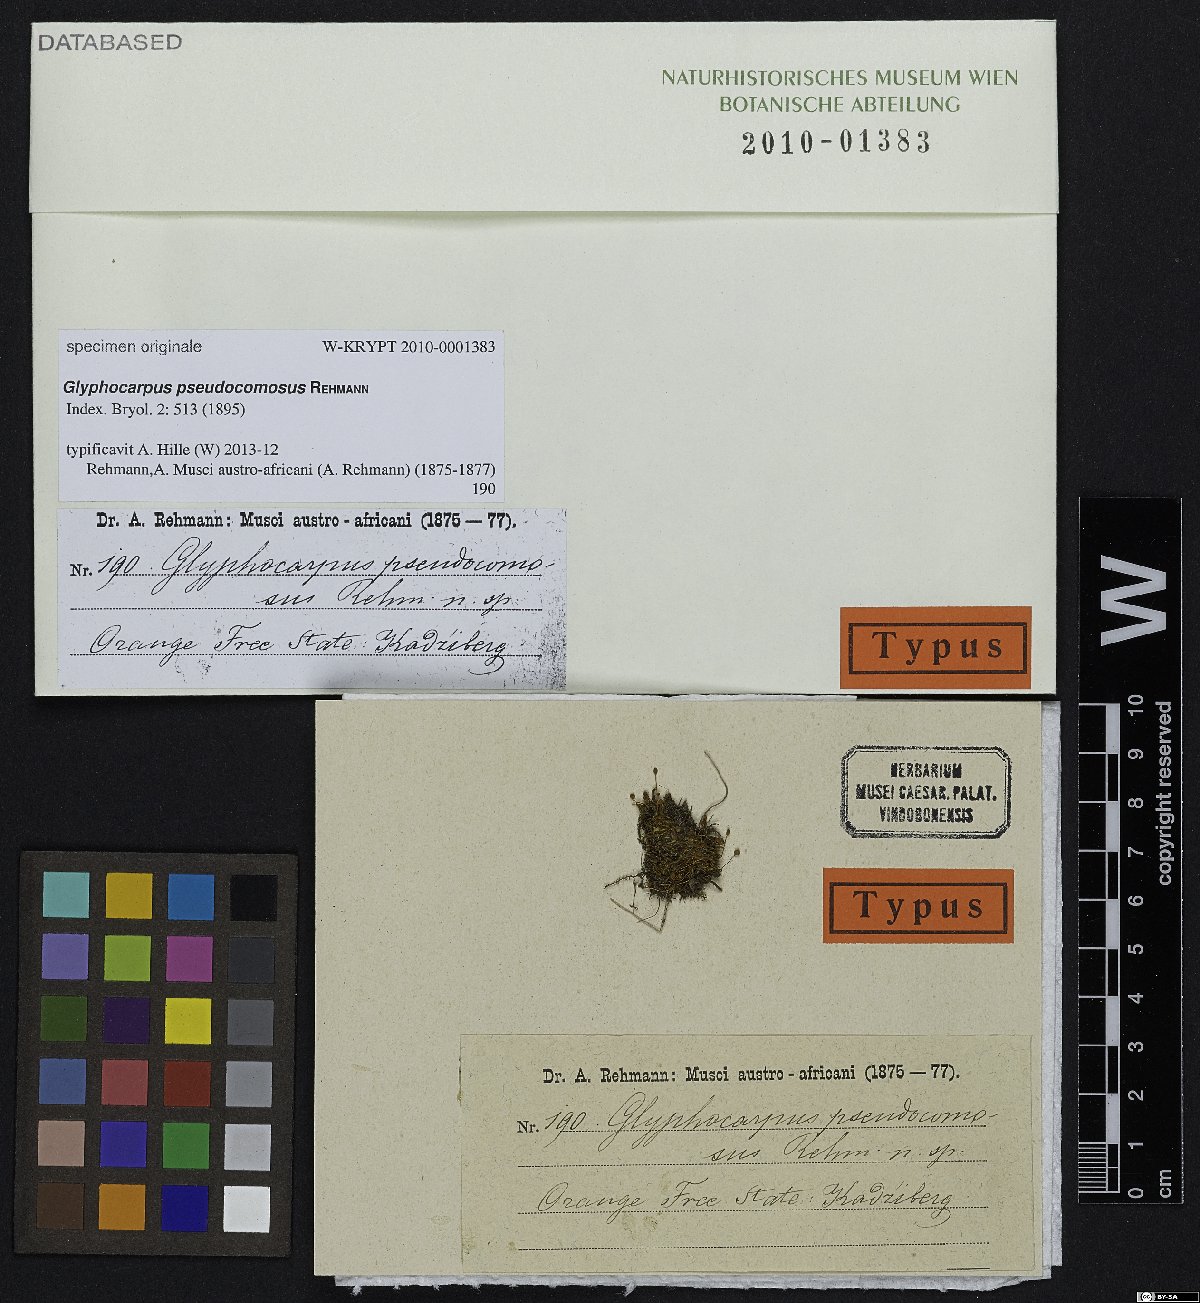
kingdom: Plantae
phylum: Bryophyta
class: Bryopsida
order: Bartramiales
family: Bartramiaceae
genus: Bartramia
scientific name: Bartramia
